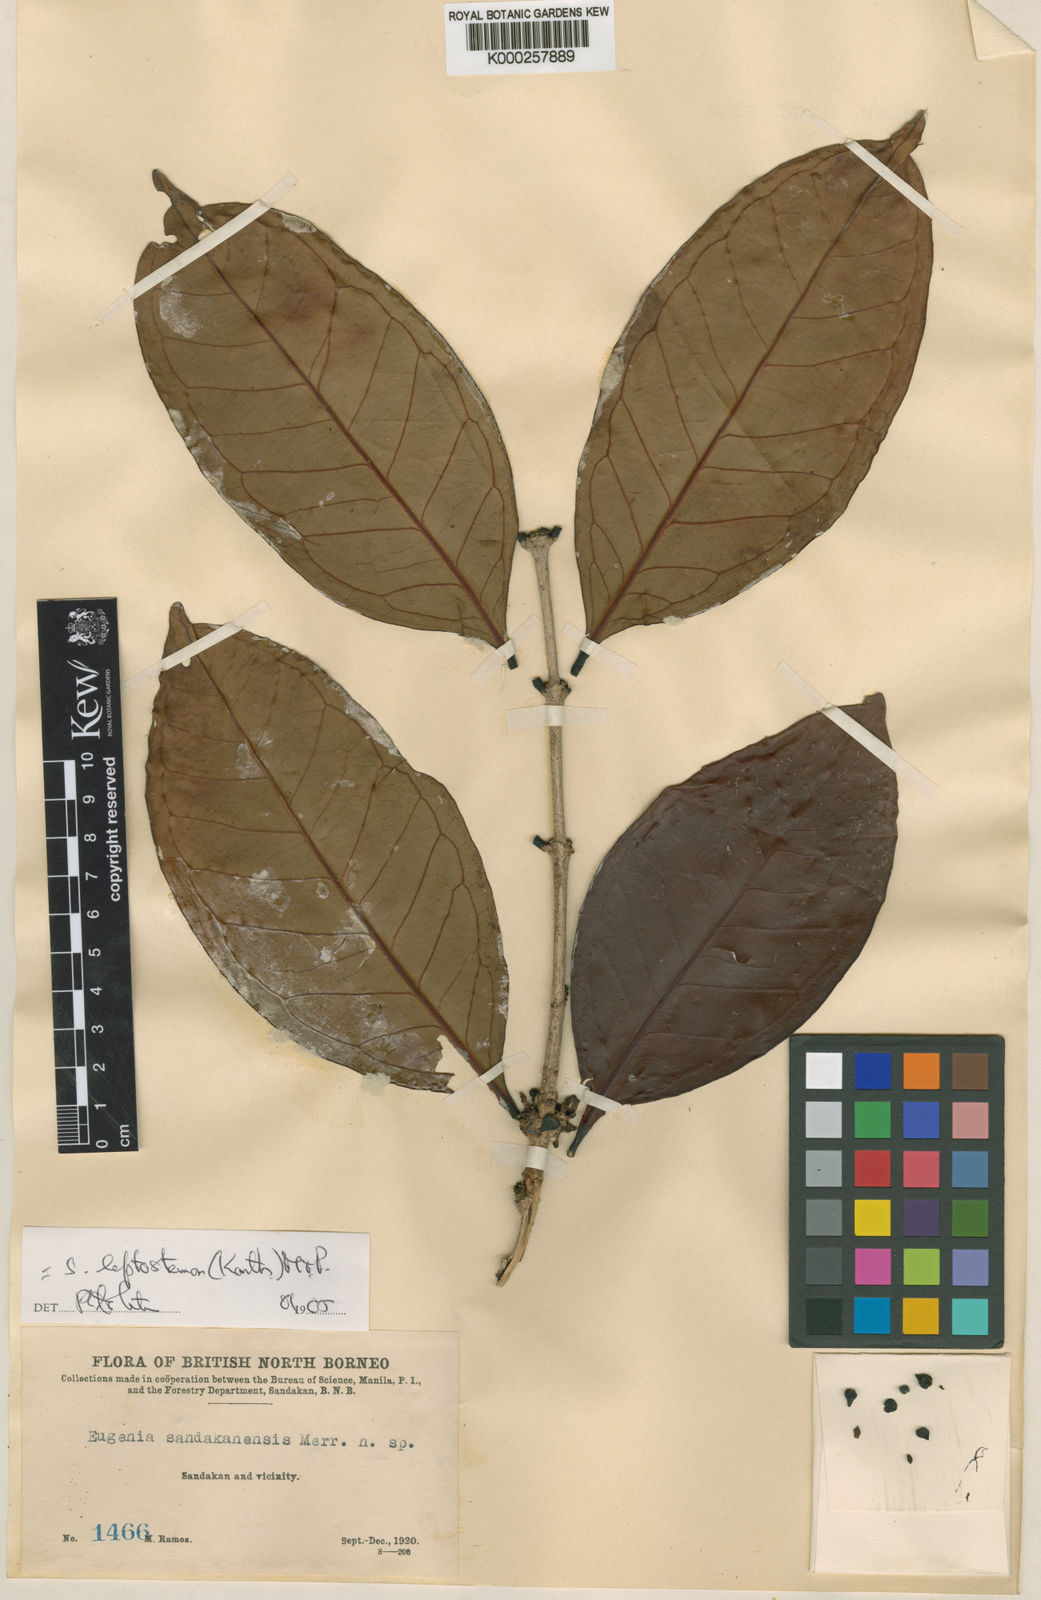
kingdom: Plantae
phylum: Tracheophyta
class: Magnoliopsida
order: Myrtales
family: Myrtaceae
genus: Syzygium
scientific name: Syzygium urceolatum
